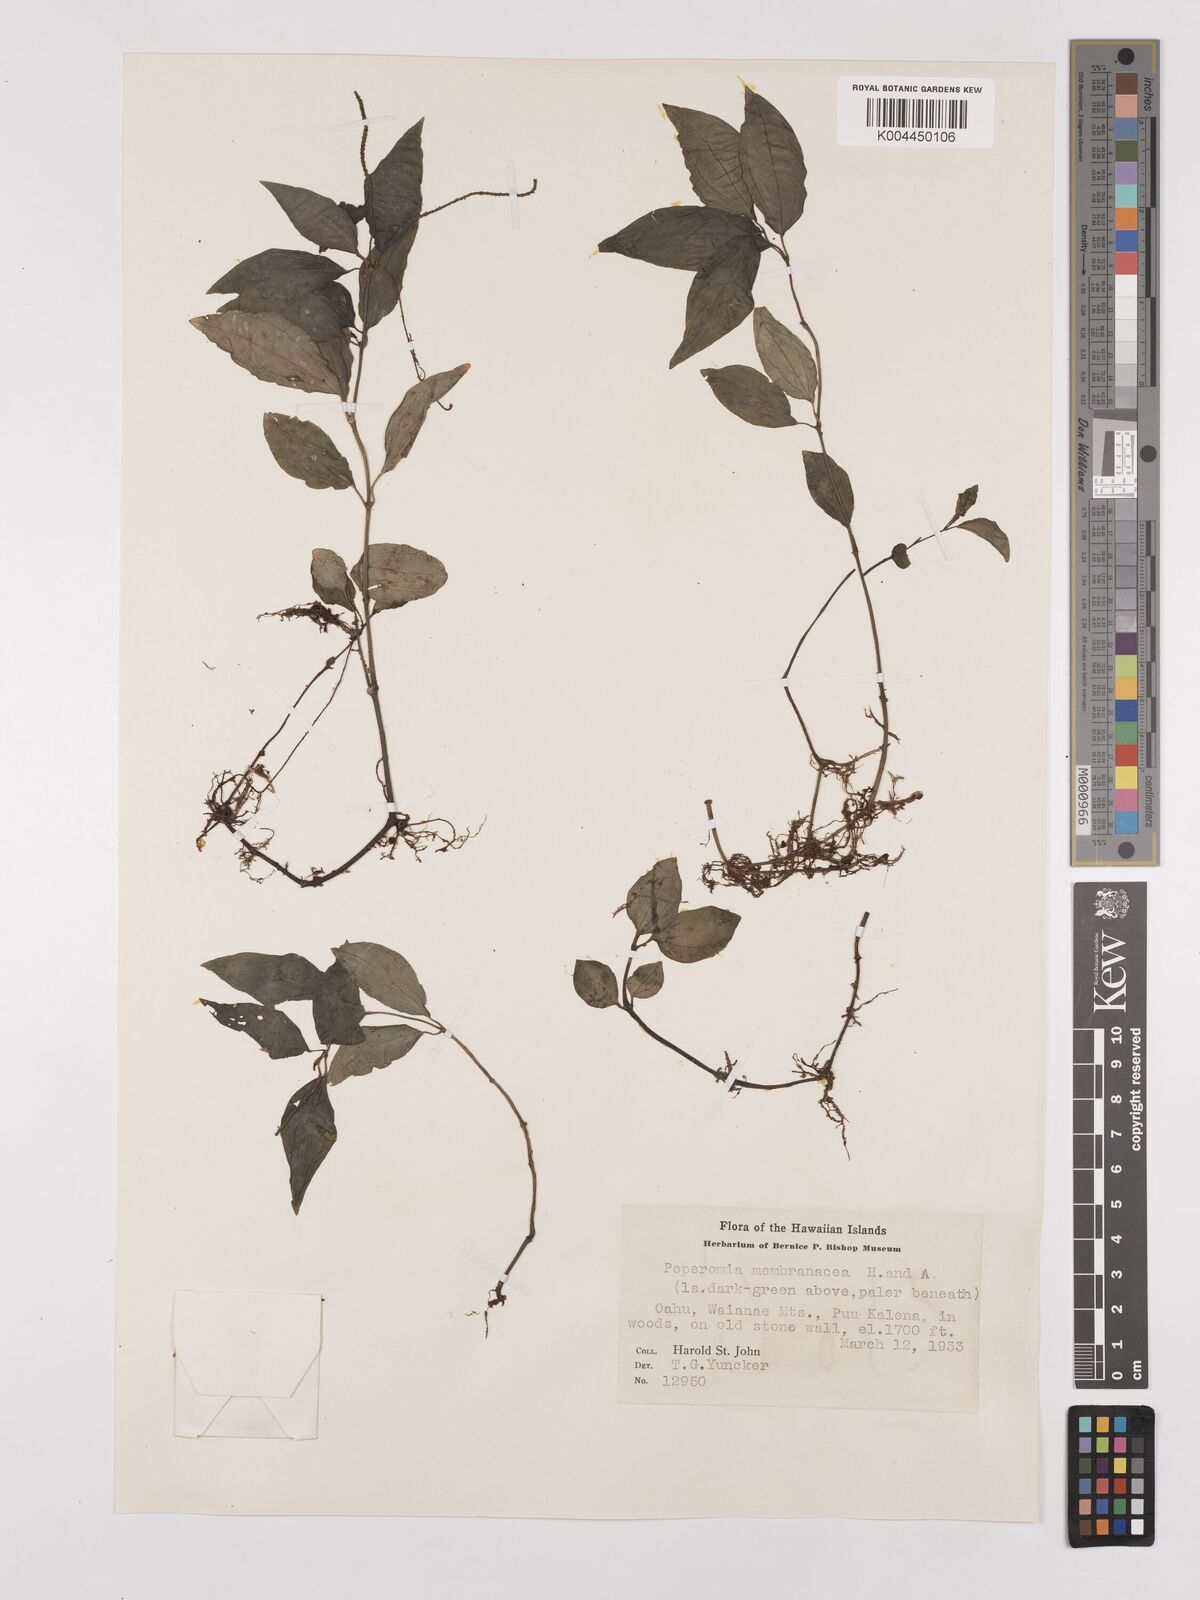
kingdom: Plantae
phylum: Tracheophyta
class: Magnoliopsida
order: Piperales
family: Piperaceae
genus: Peperomia
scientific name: Peperomia membranacea
